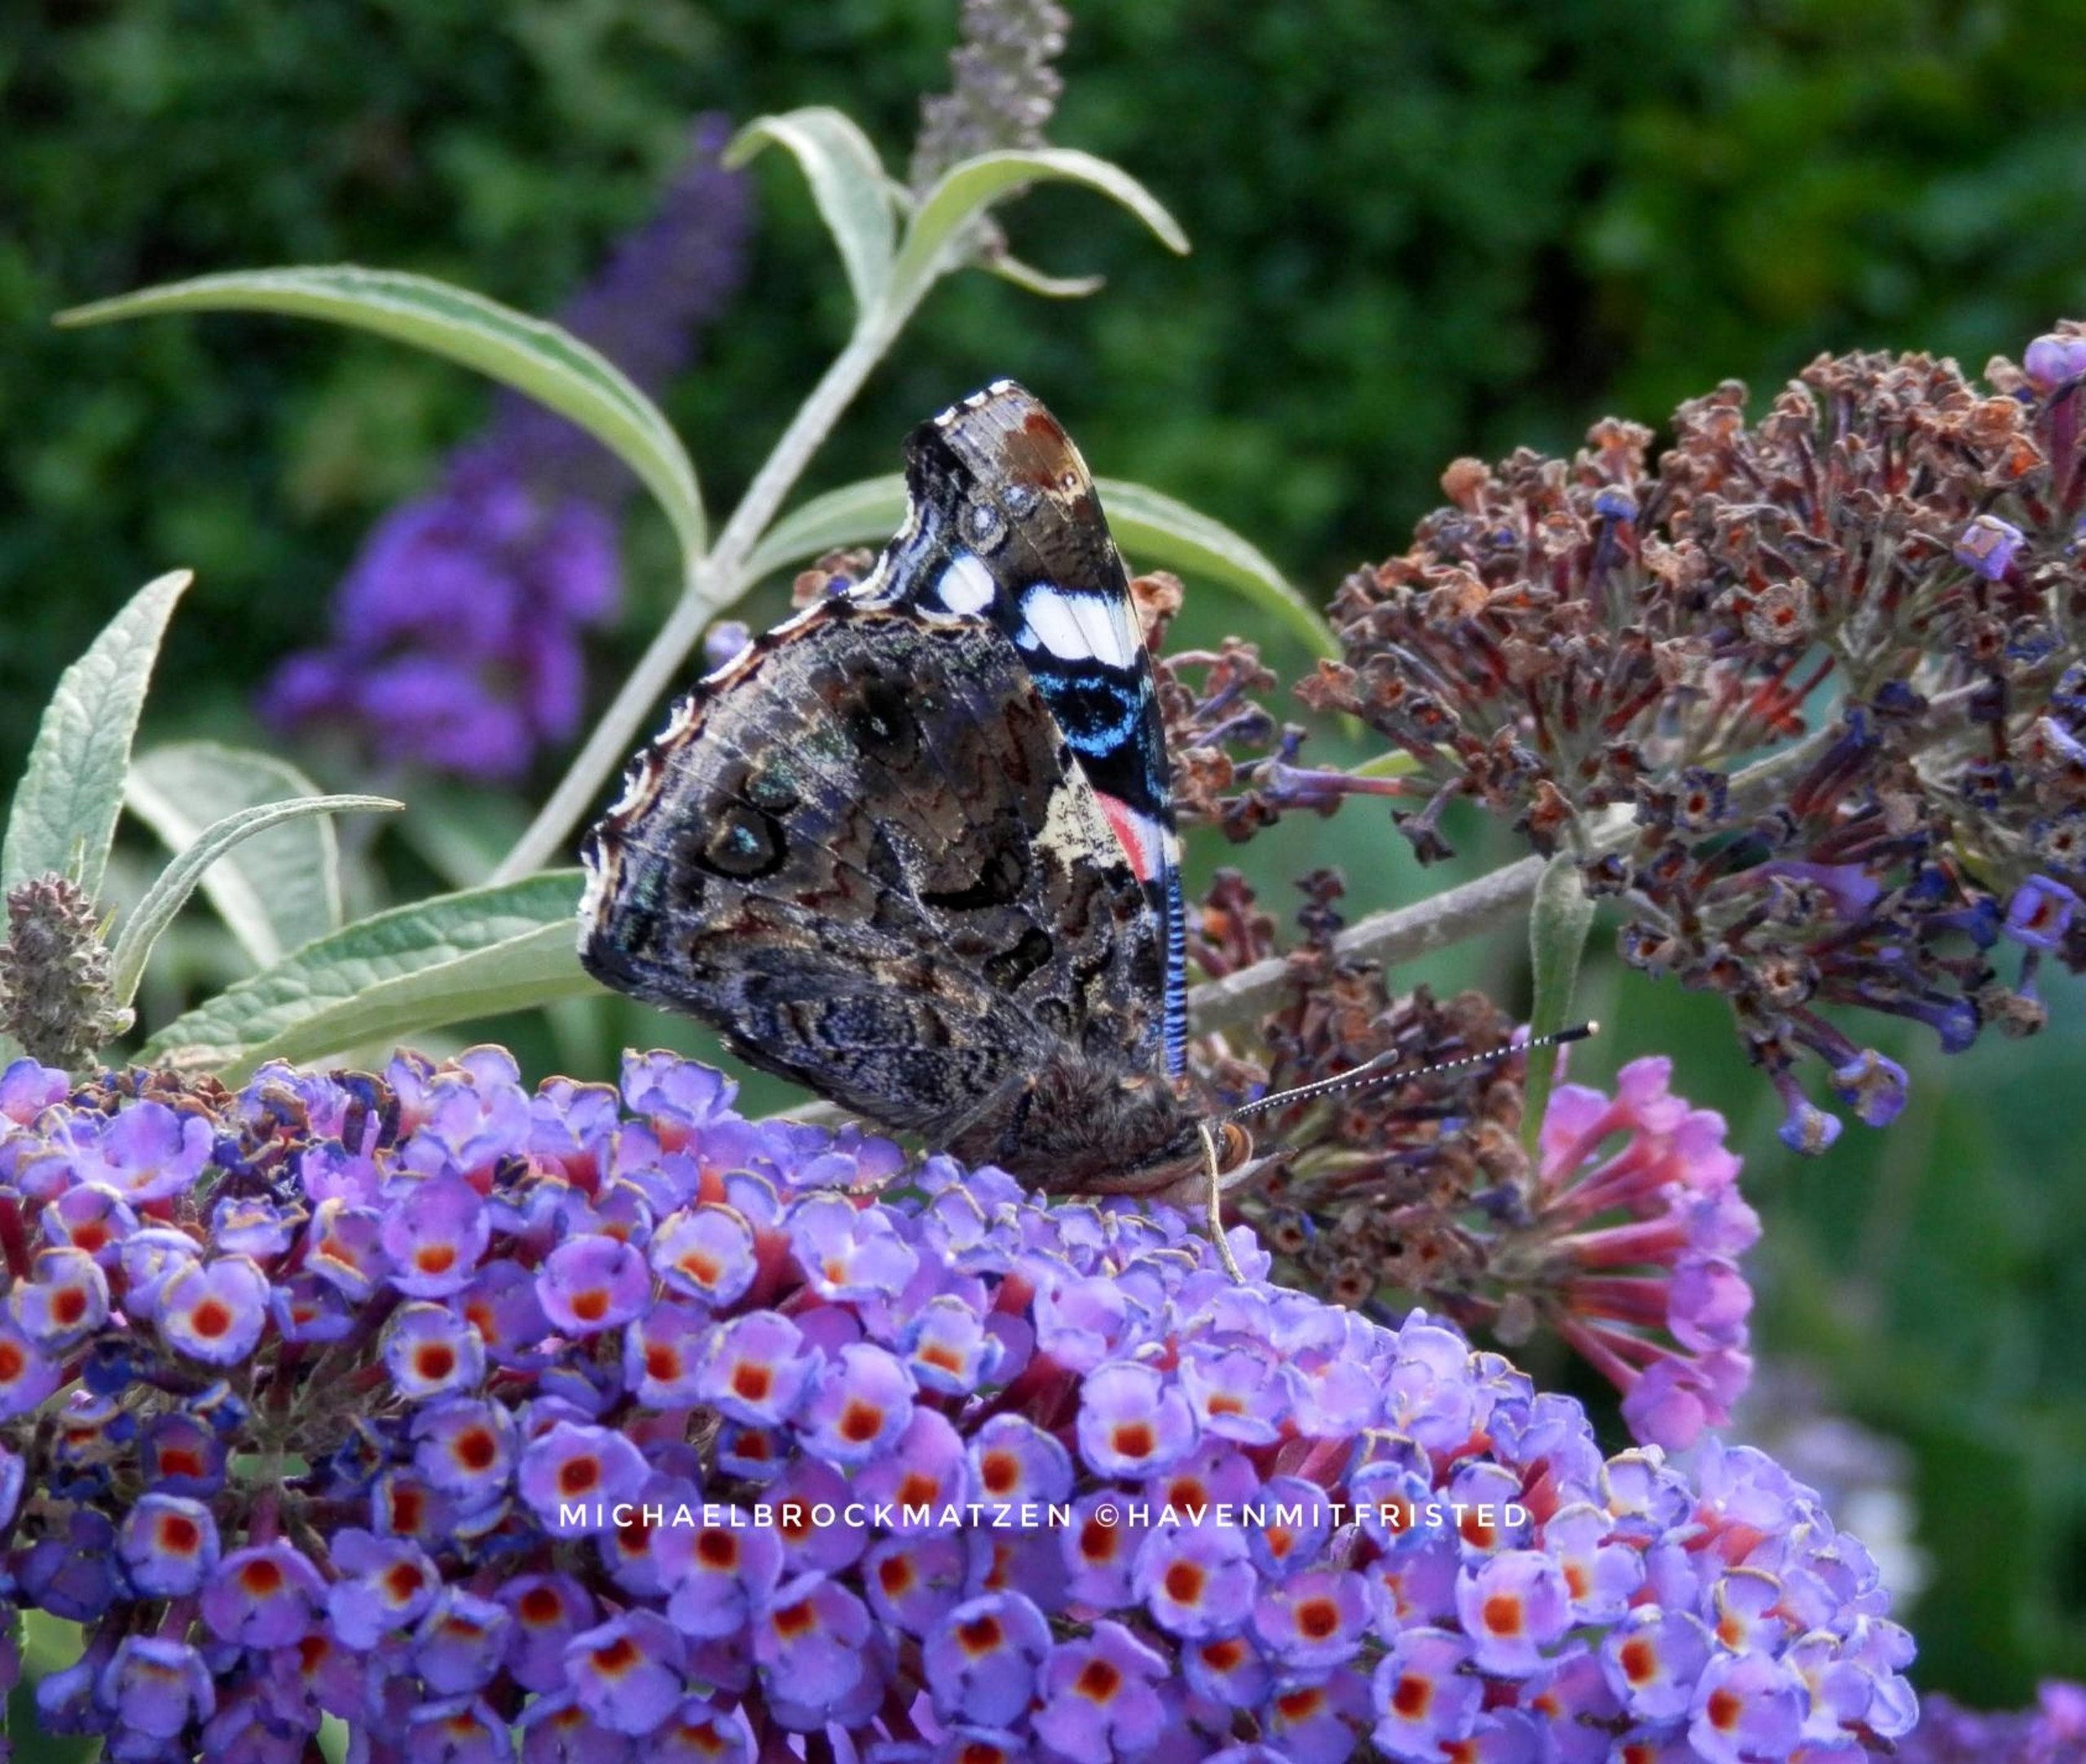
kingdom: Animalia
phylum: Arthropoda
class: Insecta
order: Lepidoptera
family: Nymphalidae
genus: Vanessa
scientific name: Vanessa atalanta
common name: Admiral
